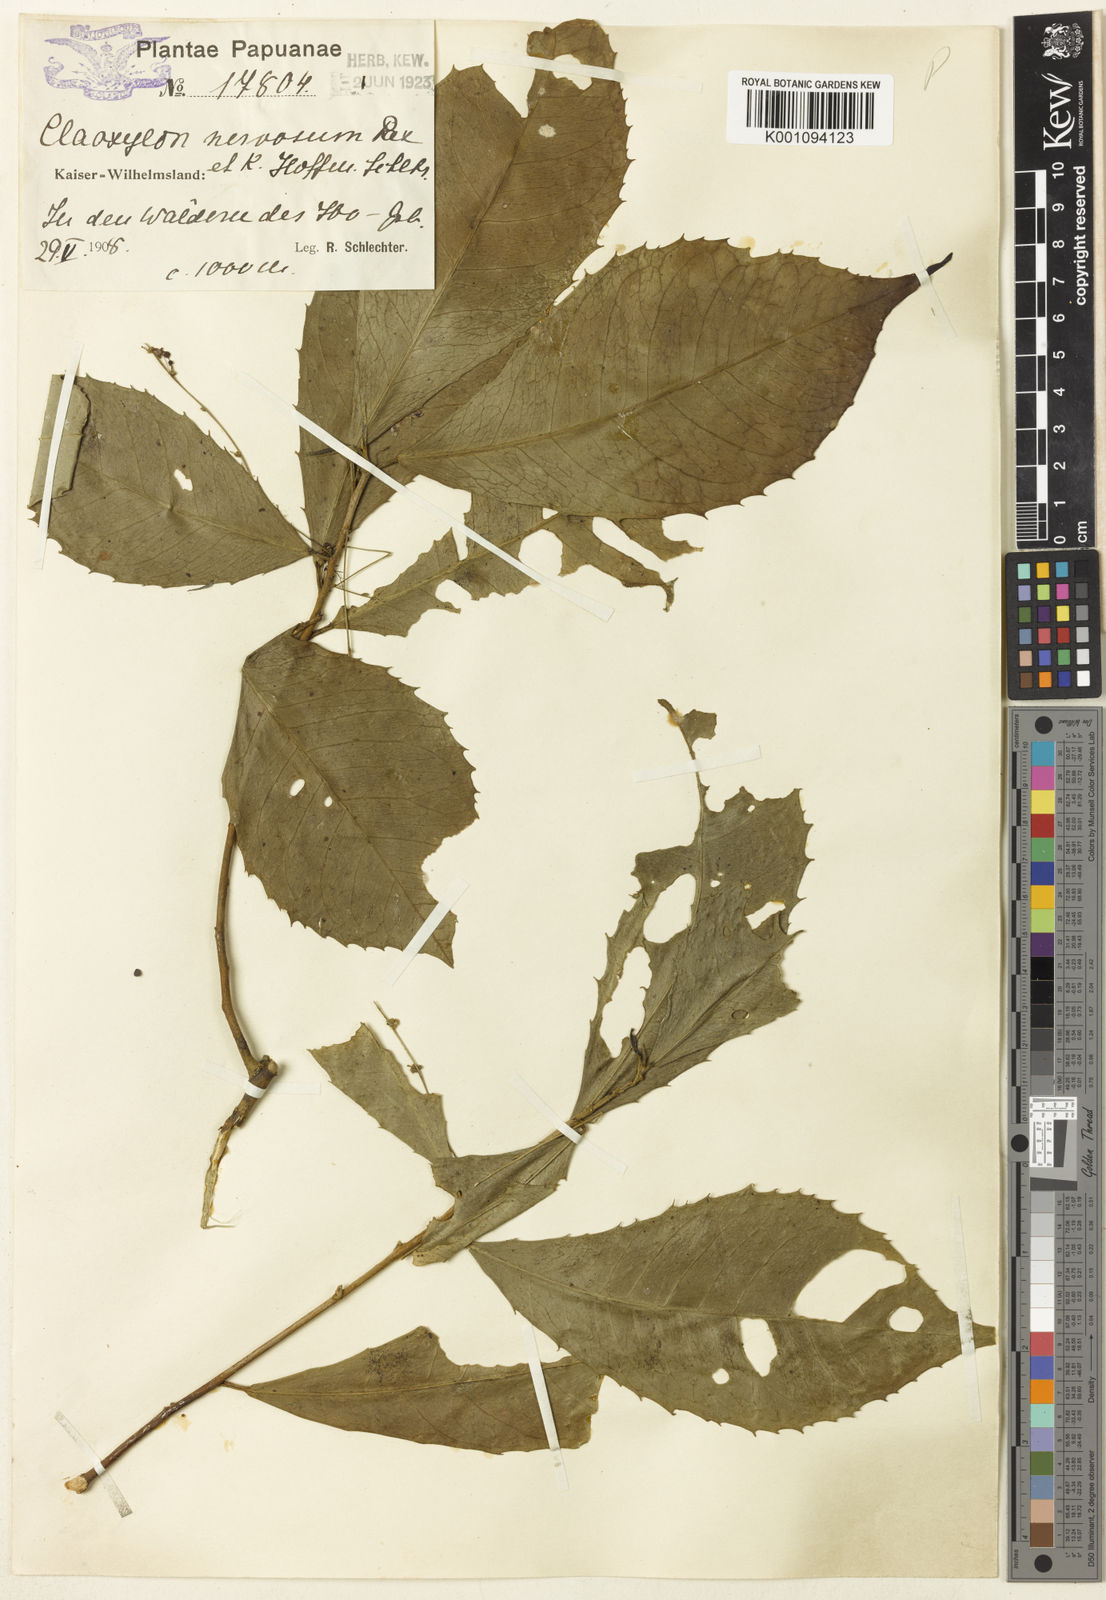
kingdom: Plantae
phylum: Tracheophyta
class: Magnoliopsida
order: Malpighiales
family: Euphorbiaceae
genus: Claoxylon
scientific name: Claoxylon nervosum
